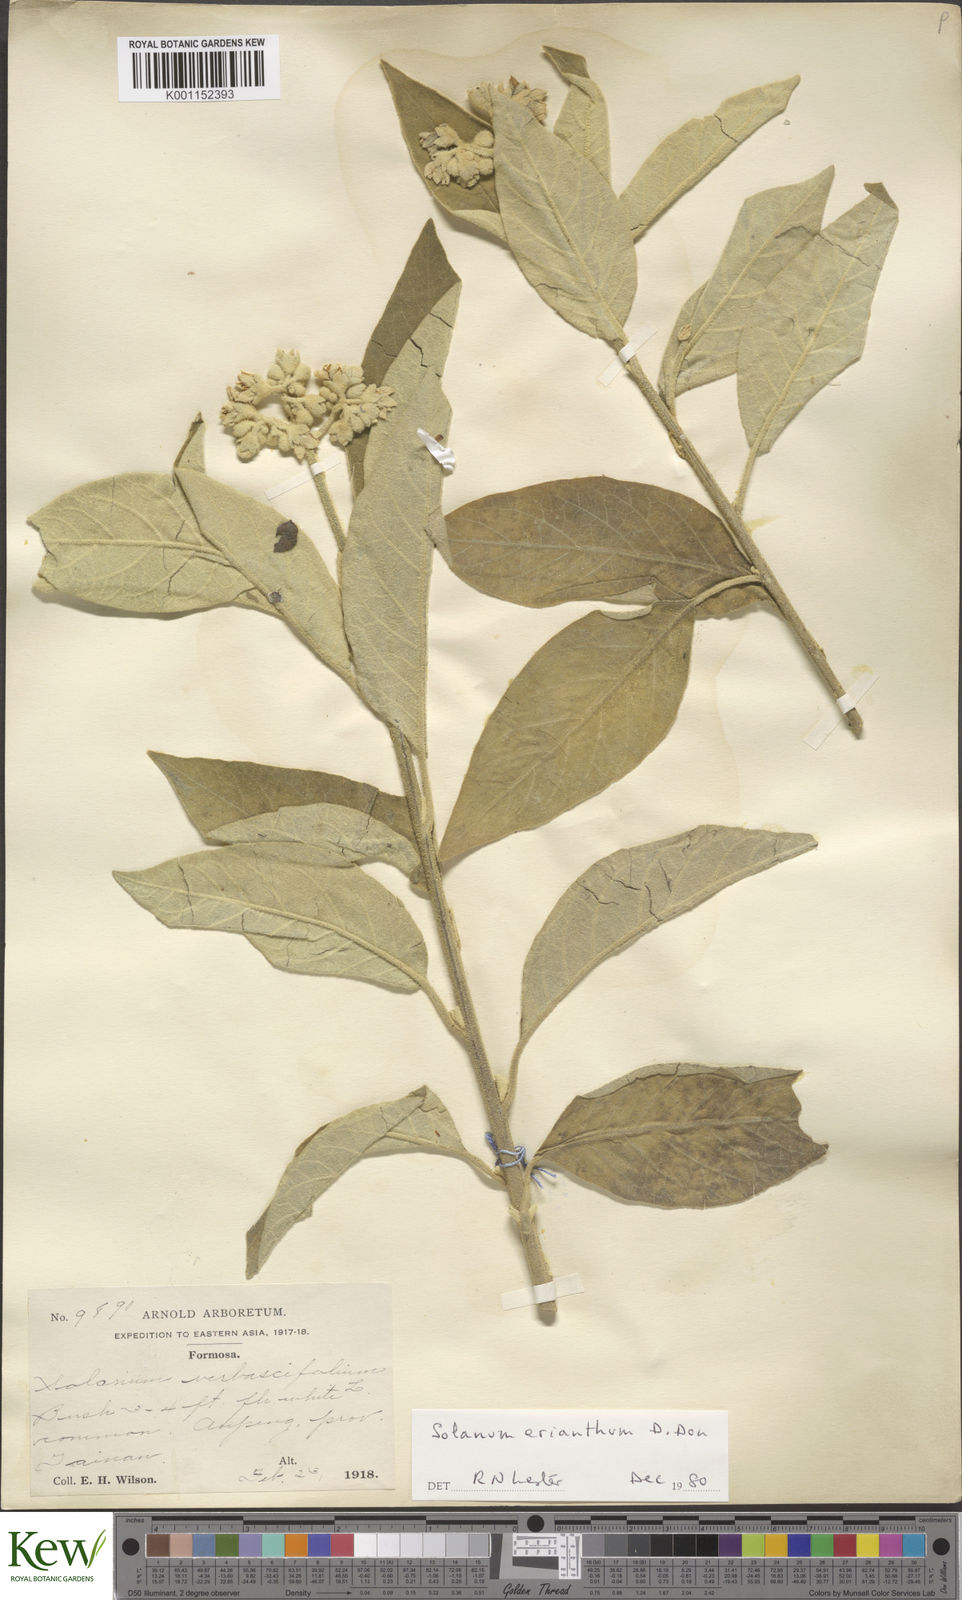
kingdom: Plantae
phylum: Tracheophyta
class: Magnoliopsida
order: Solanales
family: Solanaceae
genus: Solanum
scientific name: Solanum erianthum
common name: Tobacco-tree
